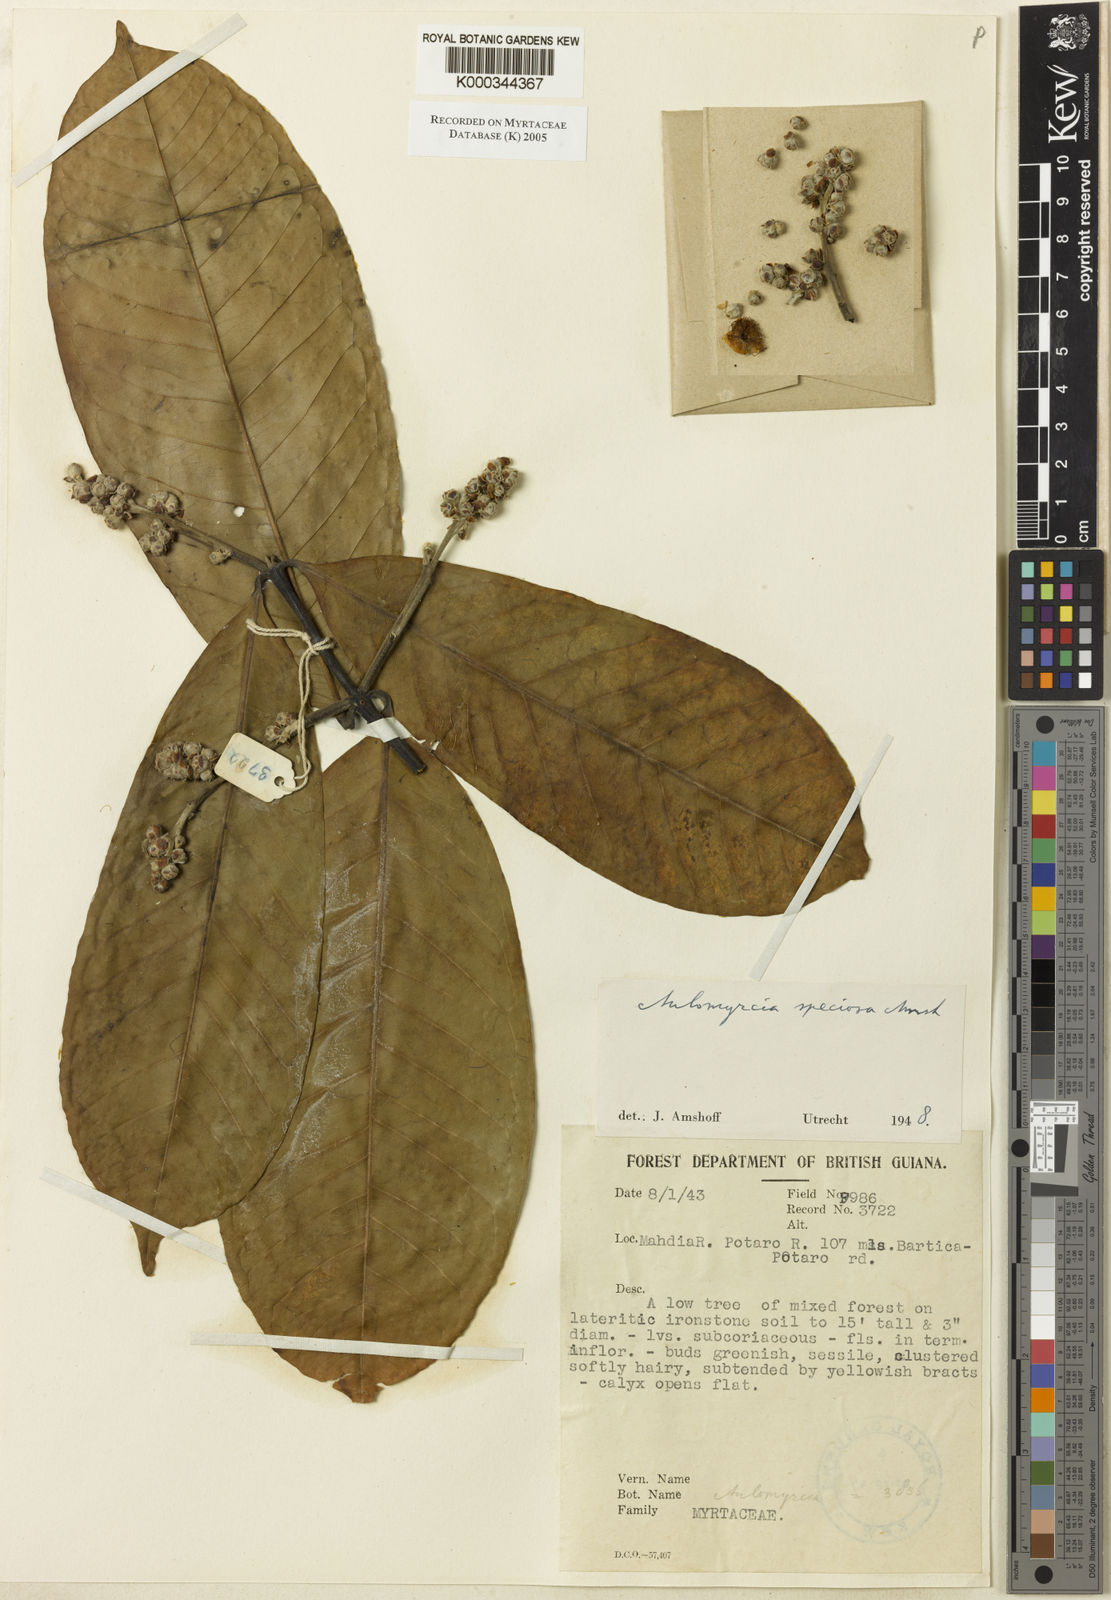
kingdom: Plantae
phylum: Tracheophyta
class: Magnoliopsida
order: Myrtales
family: Myrtaceae
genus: Myrcia
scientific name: Myrcia speciosa
